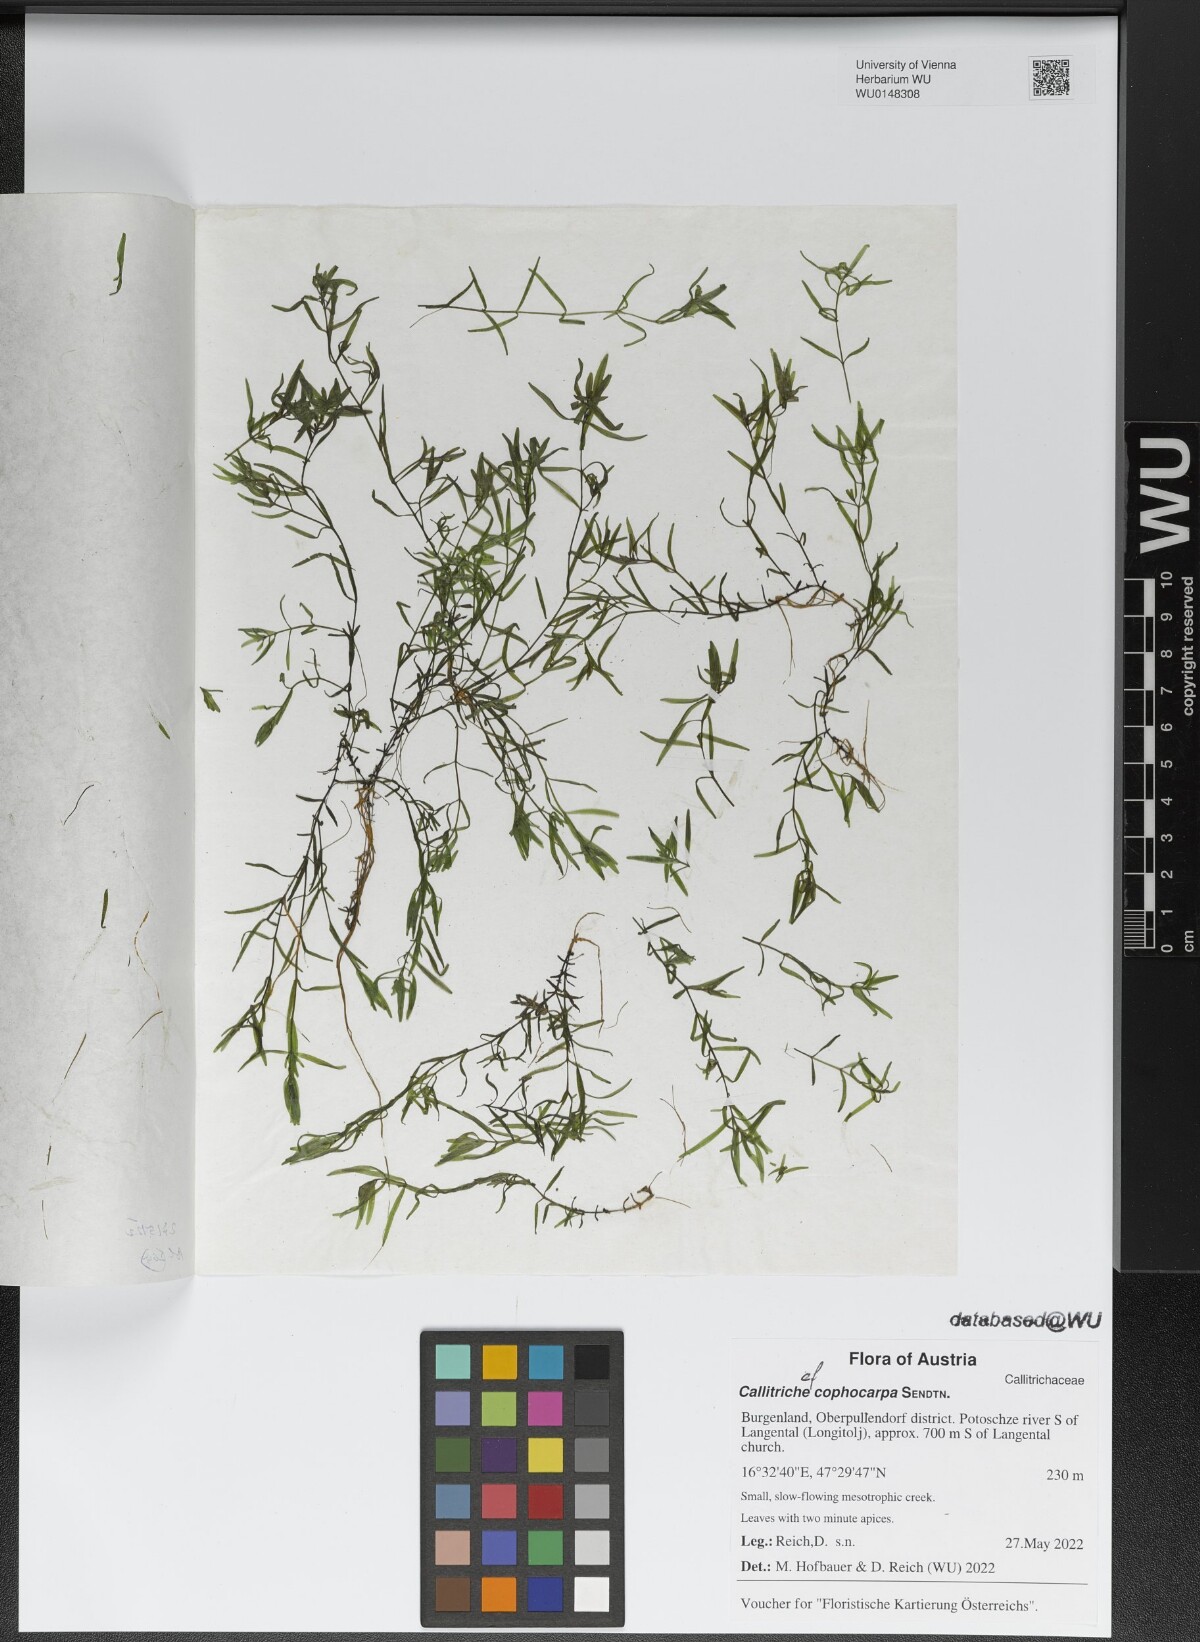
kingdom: Plantae
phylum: Tracheophyta
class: Magnoliopsida
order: Lamiales
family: Plantaginaceae
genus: Callitriche
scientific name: Callitriche cophocarpa
